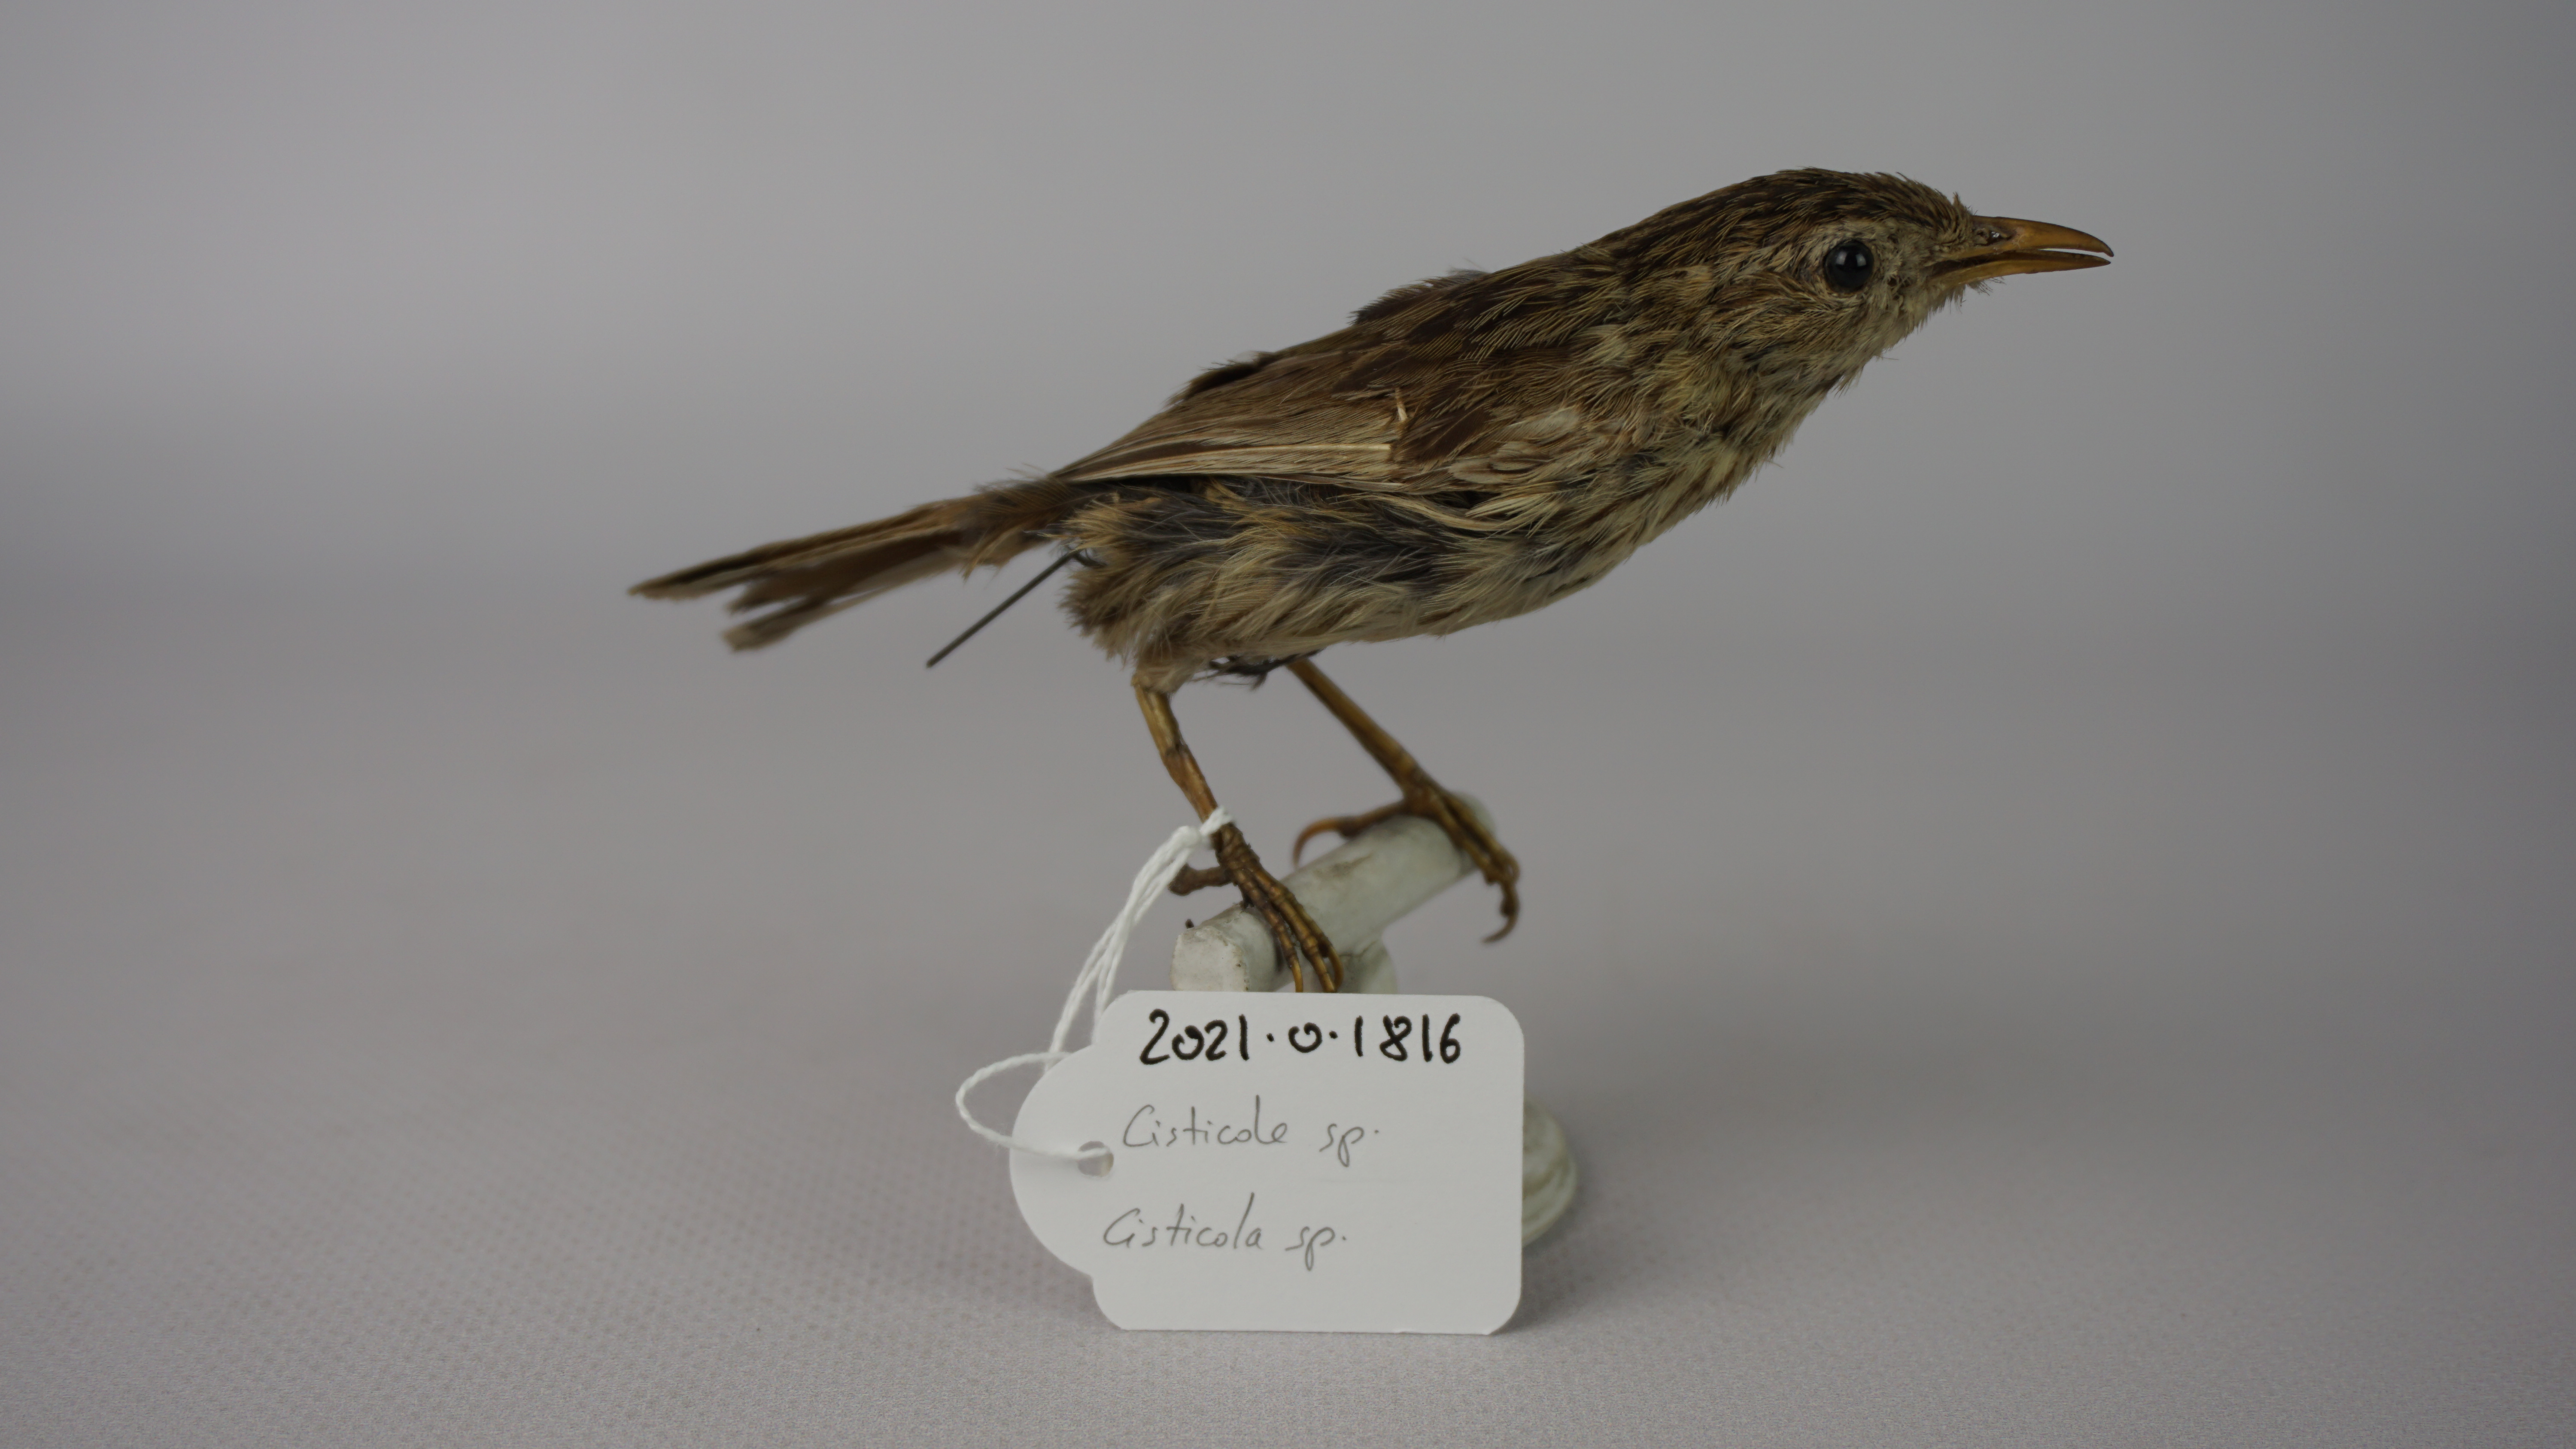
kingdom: Animalia
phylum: Chordata
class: Aves
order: Passeriformes
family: Cisticolidae
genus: Cisticola
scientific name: Cisticola
